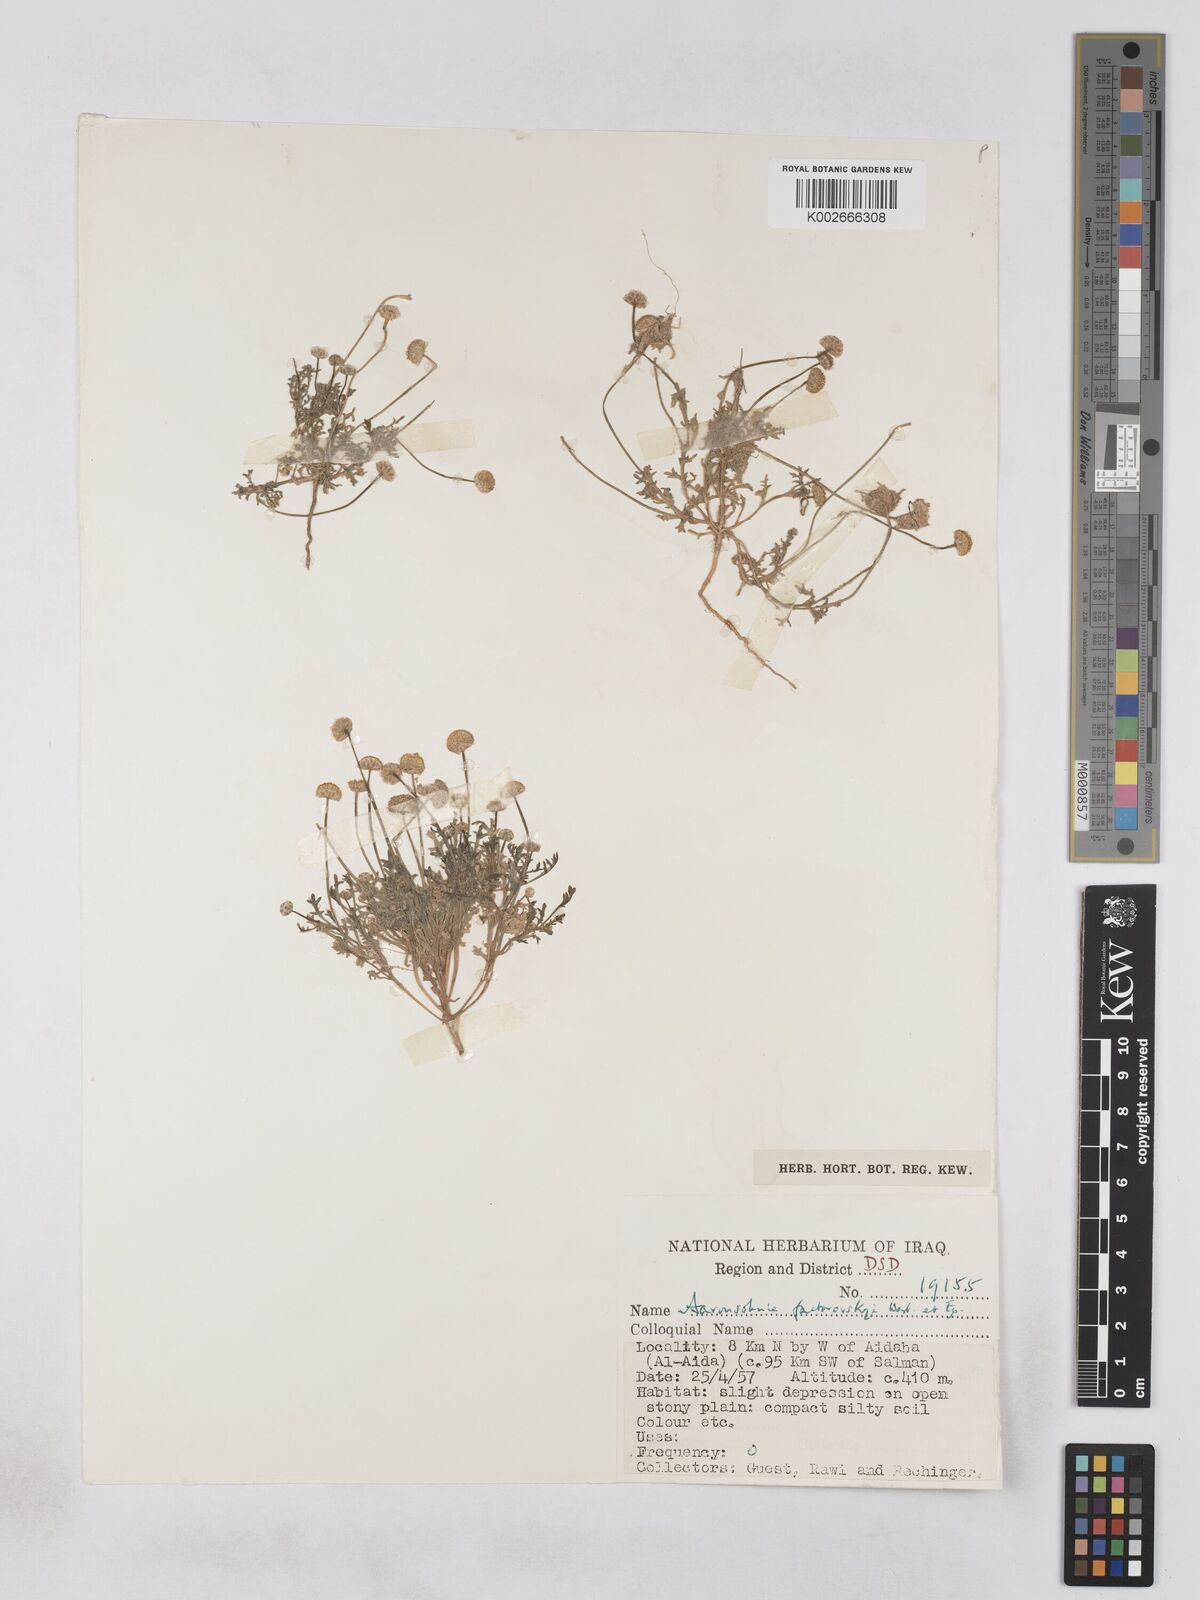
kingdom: Plantae
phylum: Tracheophyta
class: Magnoliopsida
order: Asterales
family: Asteraceae
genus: Otoglyphis
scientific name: Otoglyphis factorovskyi
